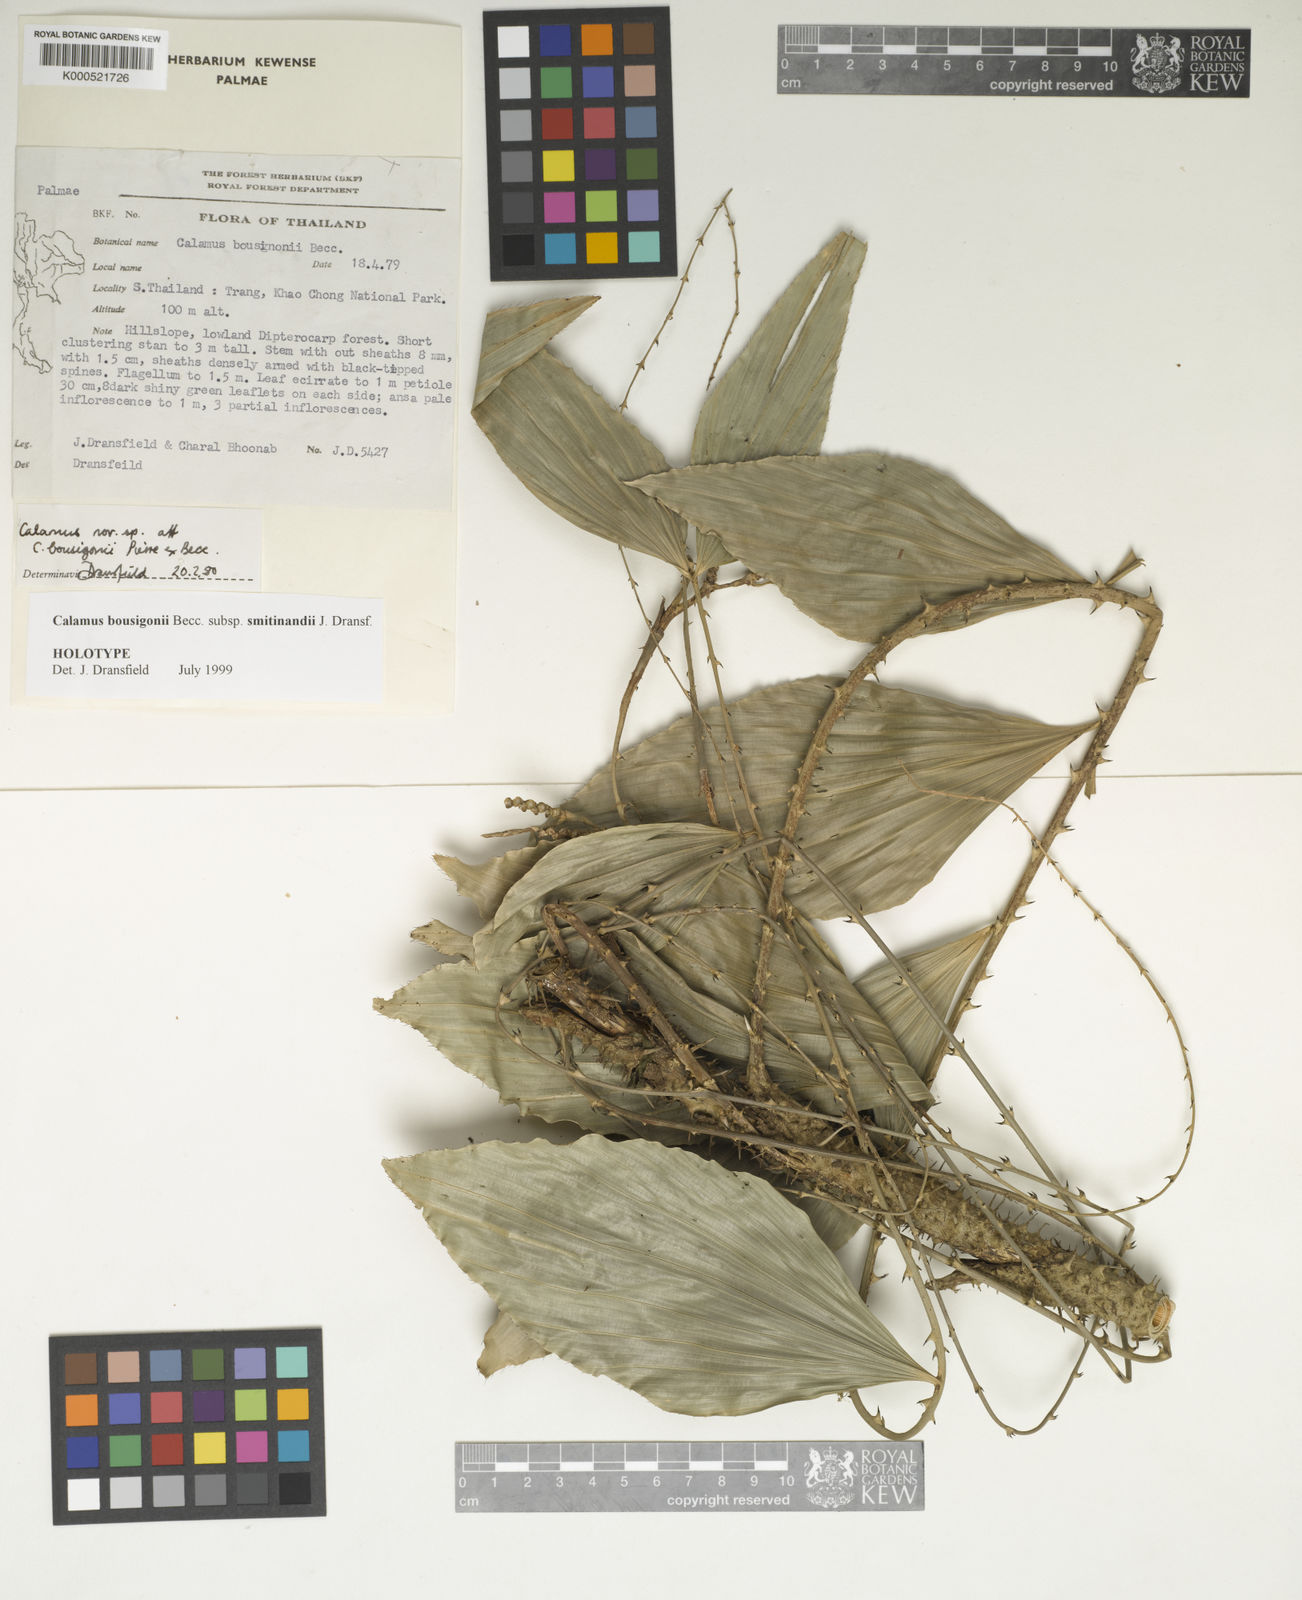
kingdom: Plantae
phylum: Tracheophyta
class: Liliopsida
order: Arecales
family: Arecaceae
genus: Calamus
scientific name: Calamus smitinandii
